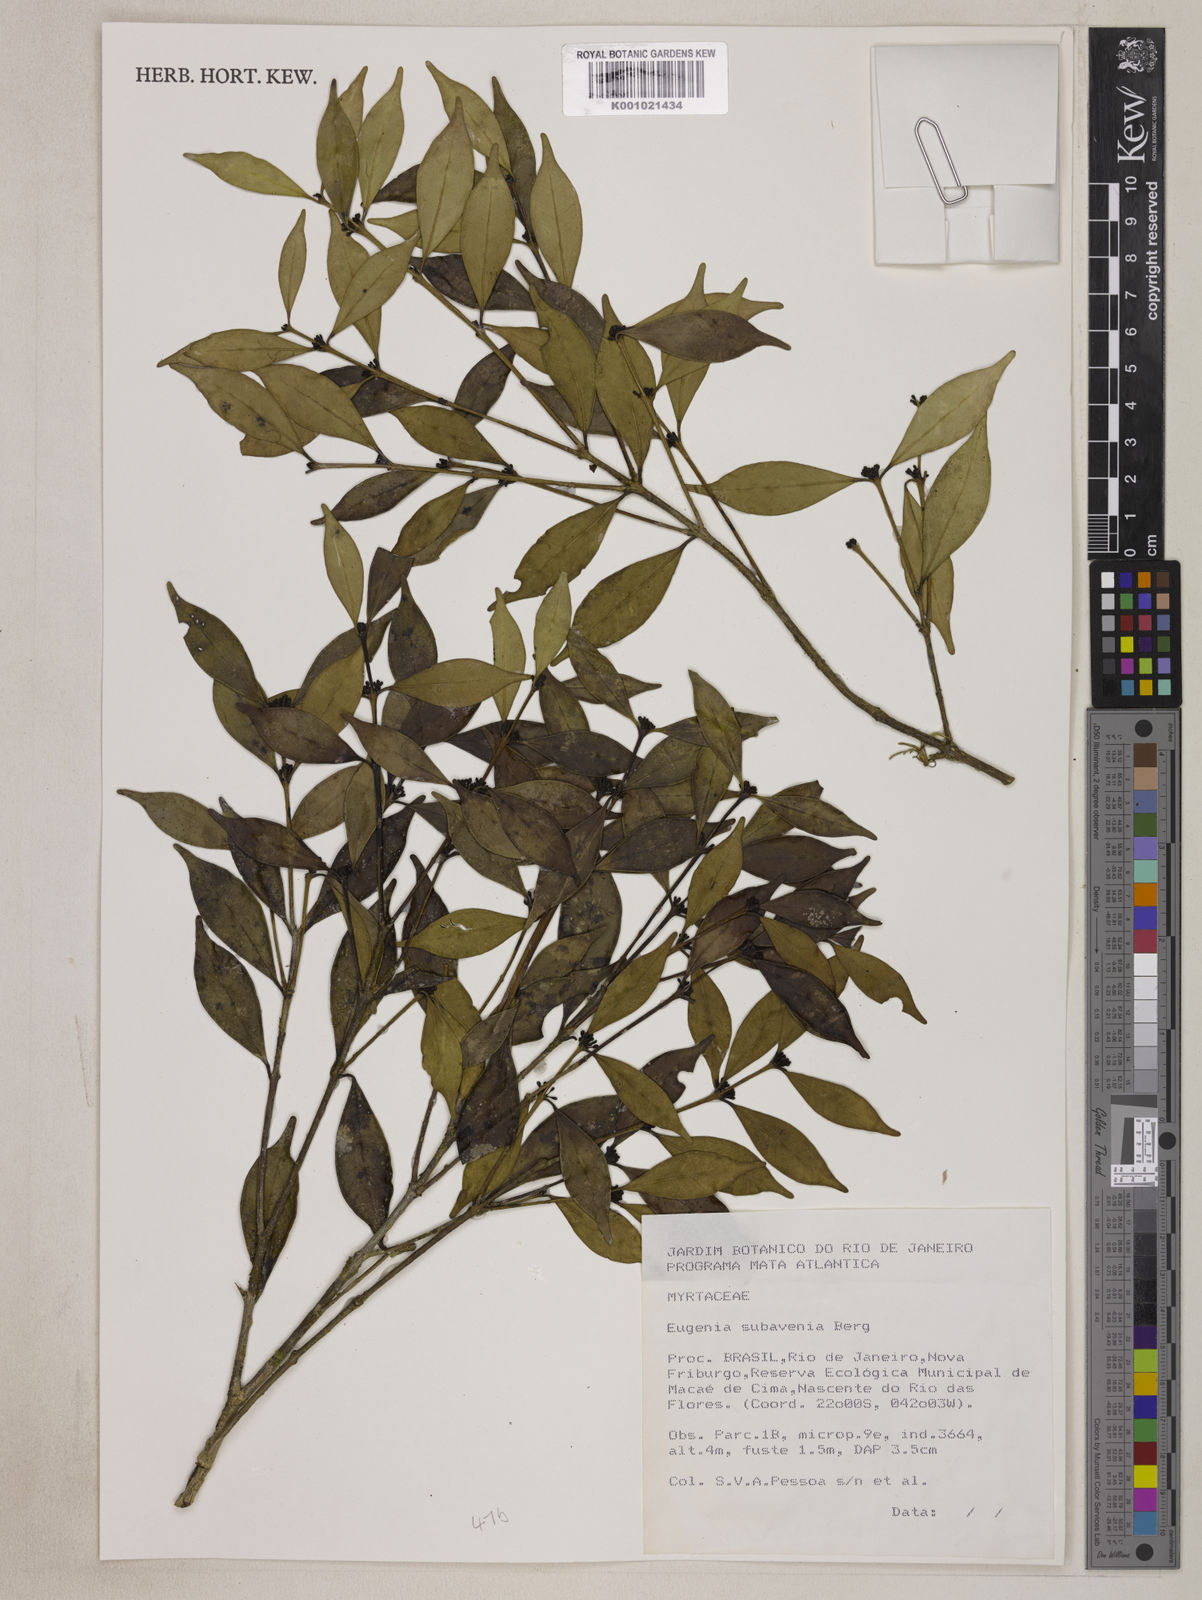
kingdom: Plantae
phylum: Tracheophyta
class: Magnoliopsida
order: Myrtales
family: Myrtaceae
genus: Eugenia
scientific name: Eugenia subavenia
